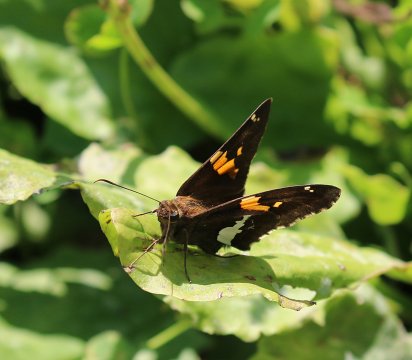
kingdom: Animalia
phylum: Arthropoda
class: Insecta
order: Lepidoptera
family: Hesperiidae
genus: Epargyreus
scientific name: Epargyreus clarus
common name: Silver-spotted Skipper
